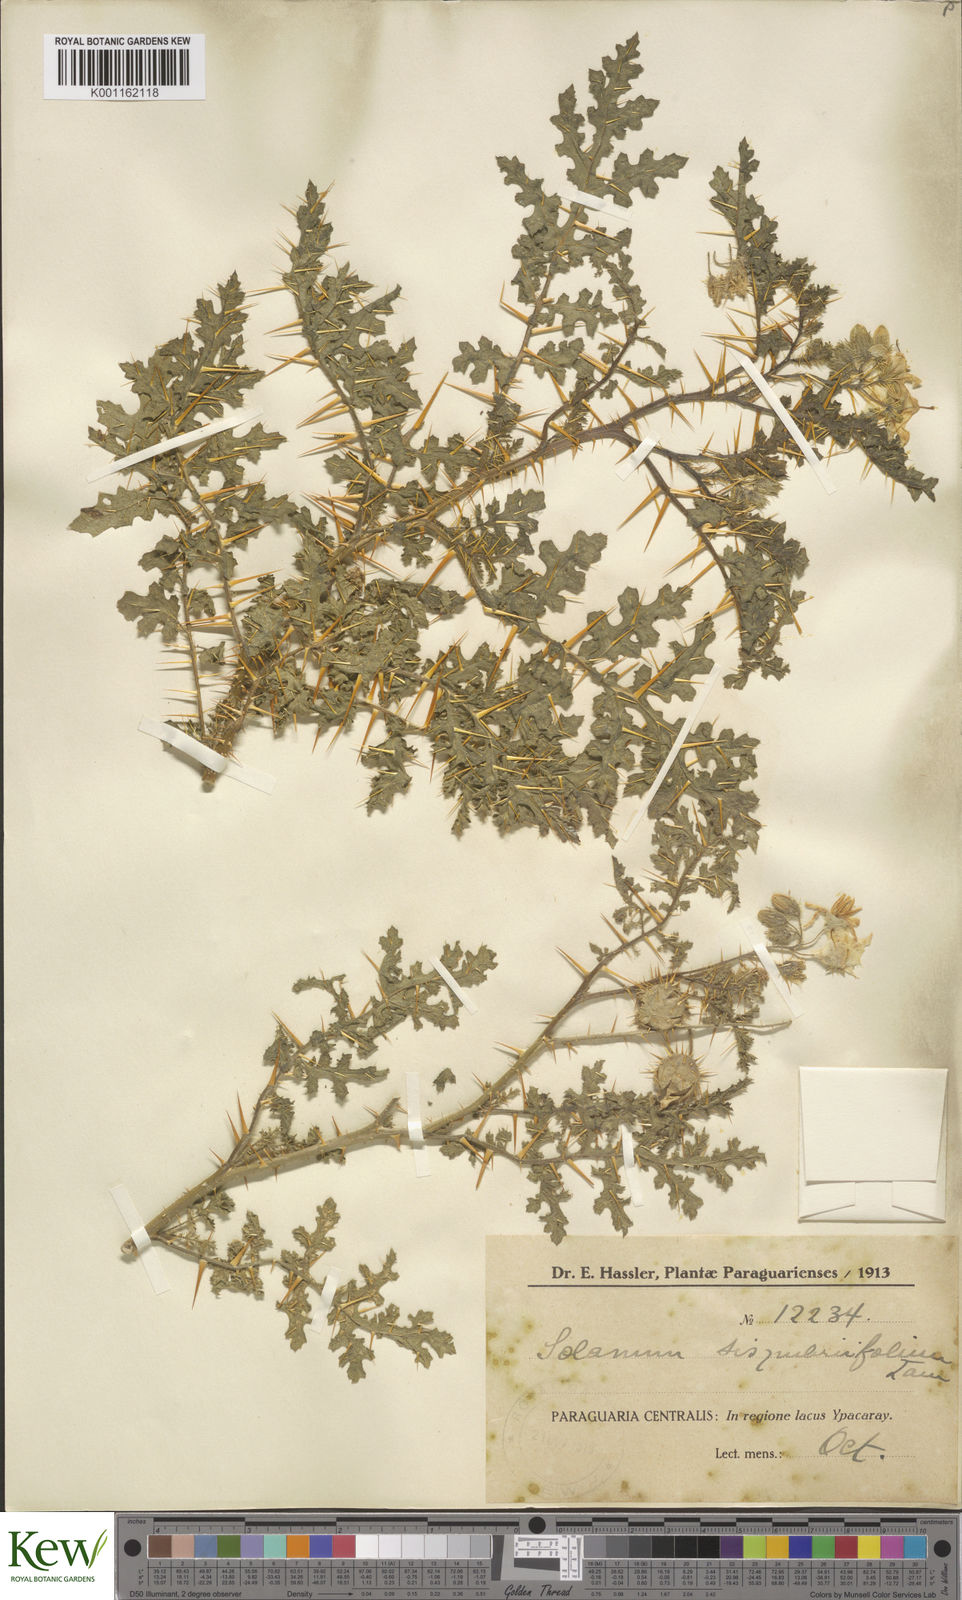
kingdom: Plantae
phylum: Tracheophyta
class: Magnoliopsida
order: Solanales
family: Solanaceae
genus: Solanum
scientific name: Solanum sisymbriifolium
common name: Red buffalo-bur
